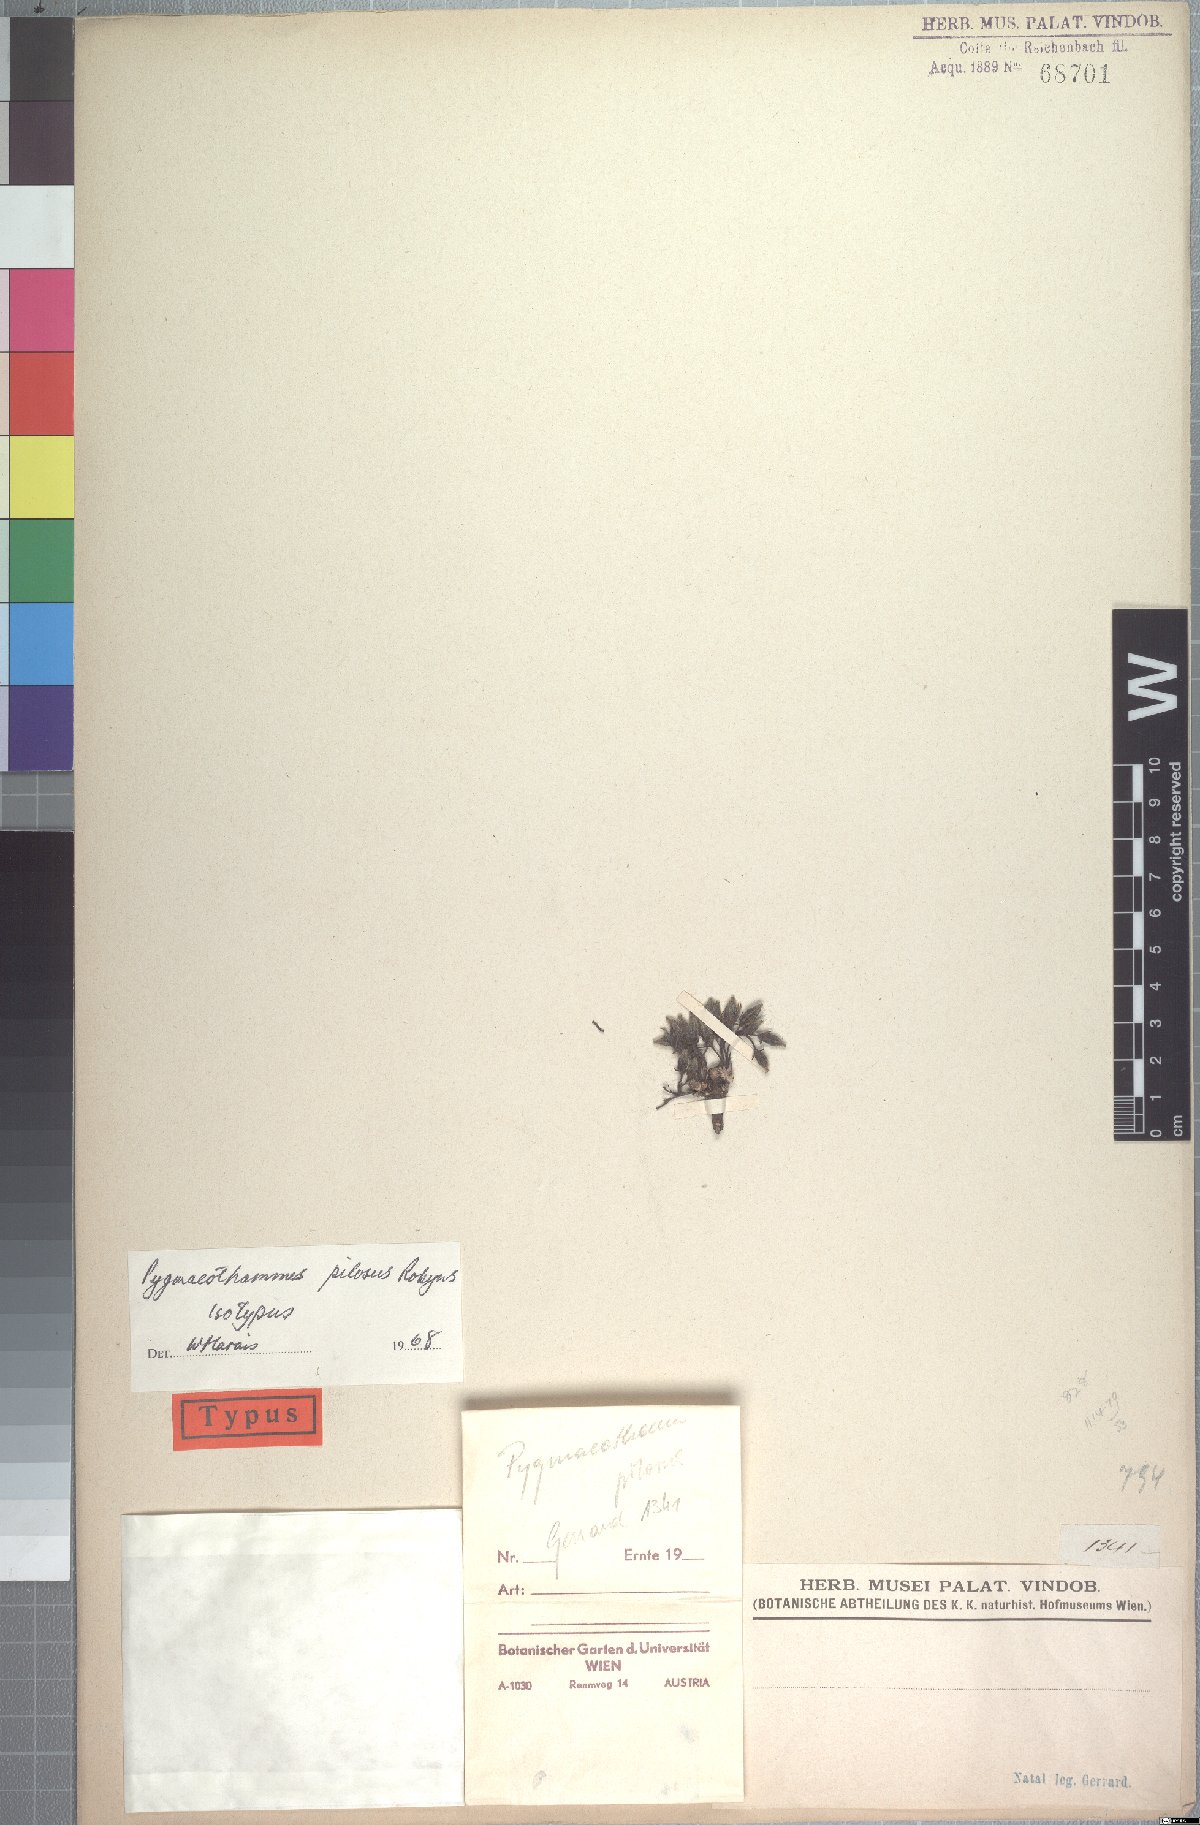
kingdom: Plantae
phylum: Tracheophyta
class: Magnoliopsida
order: Gentianales
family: Rubiaceae
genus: Bridsonia
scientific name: Bridsonia chamaedendrum
